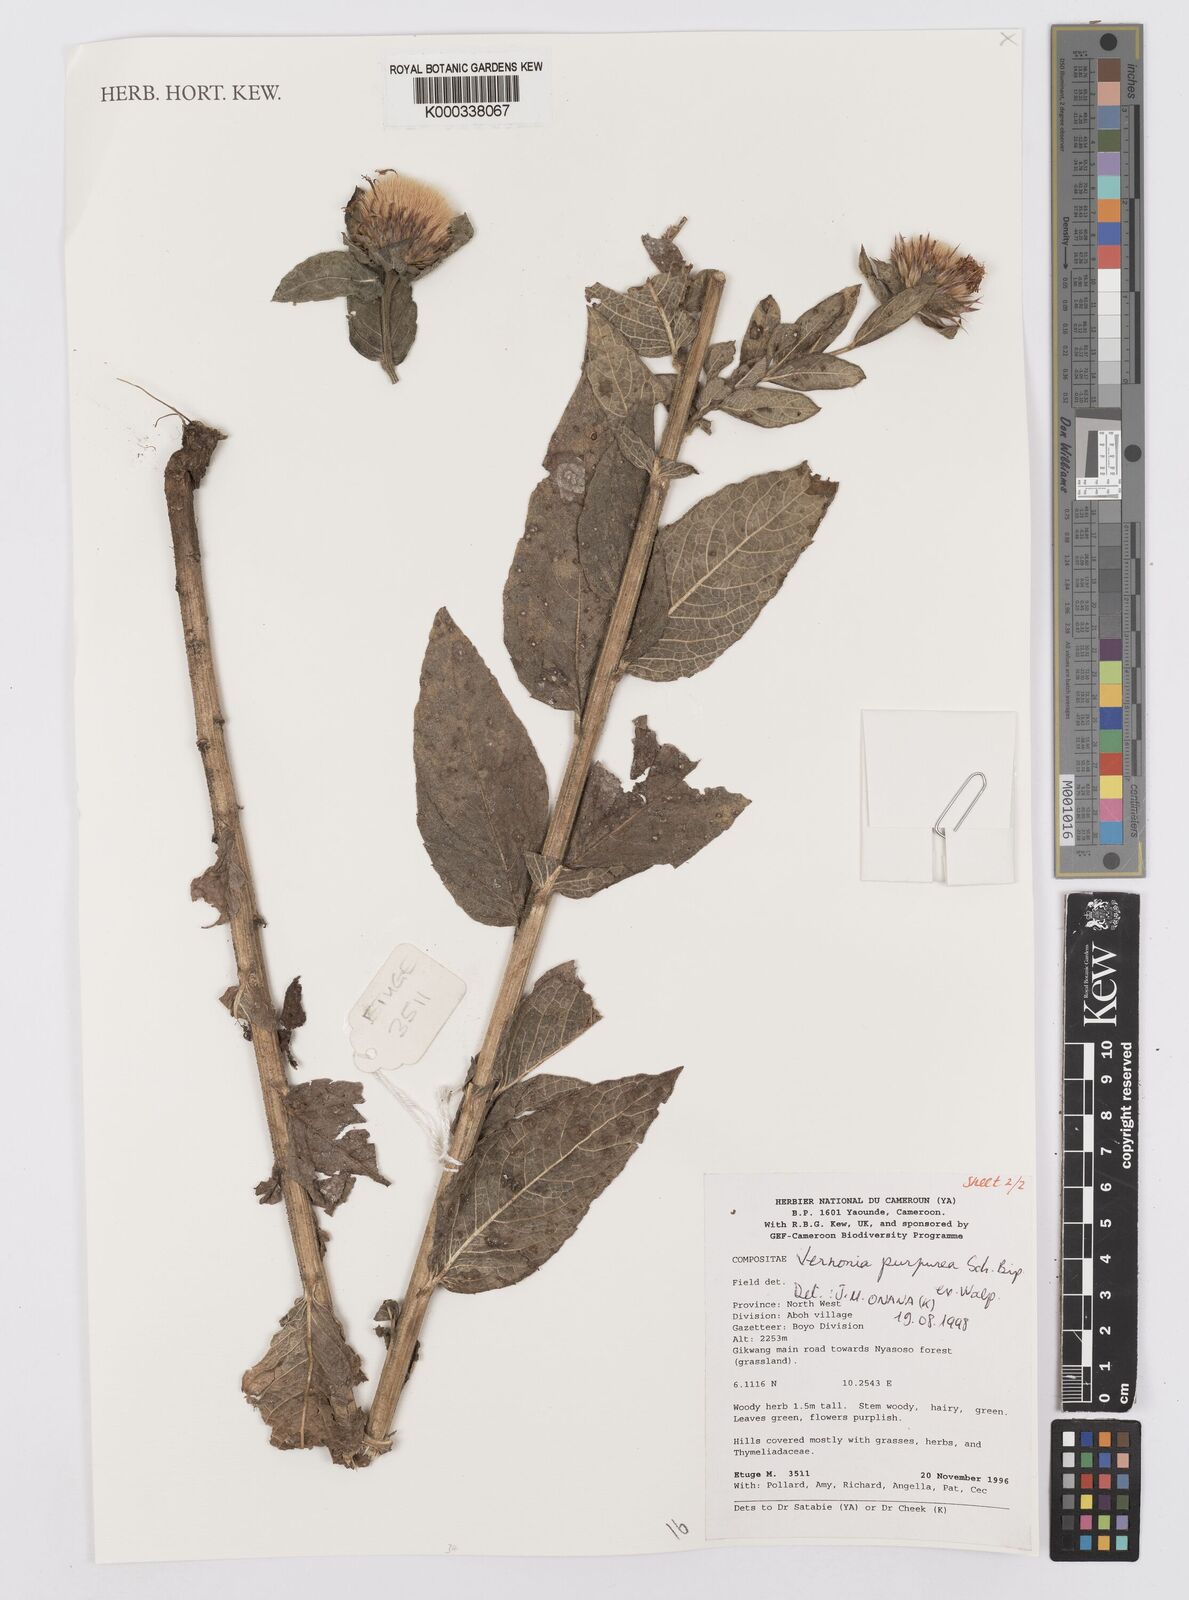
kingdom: Plantae
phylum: Tracheophyta
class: Magnoliopsida
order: Asterales
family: Asteraceae
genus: Vernonia
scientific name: Vernonia
